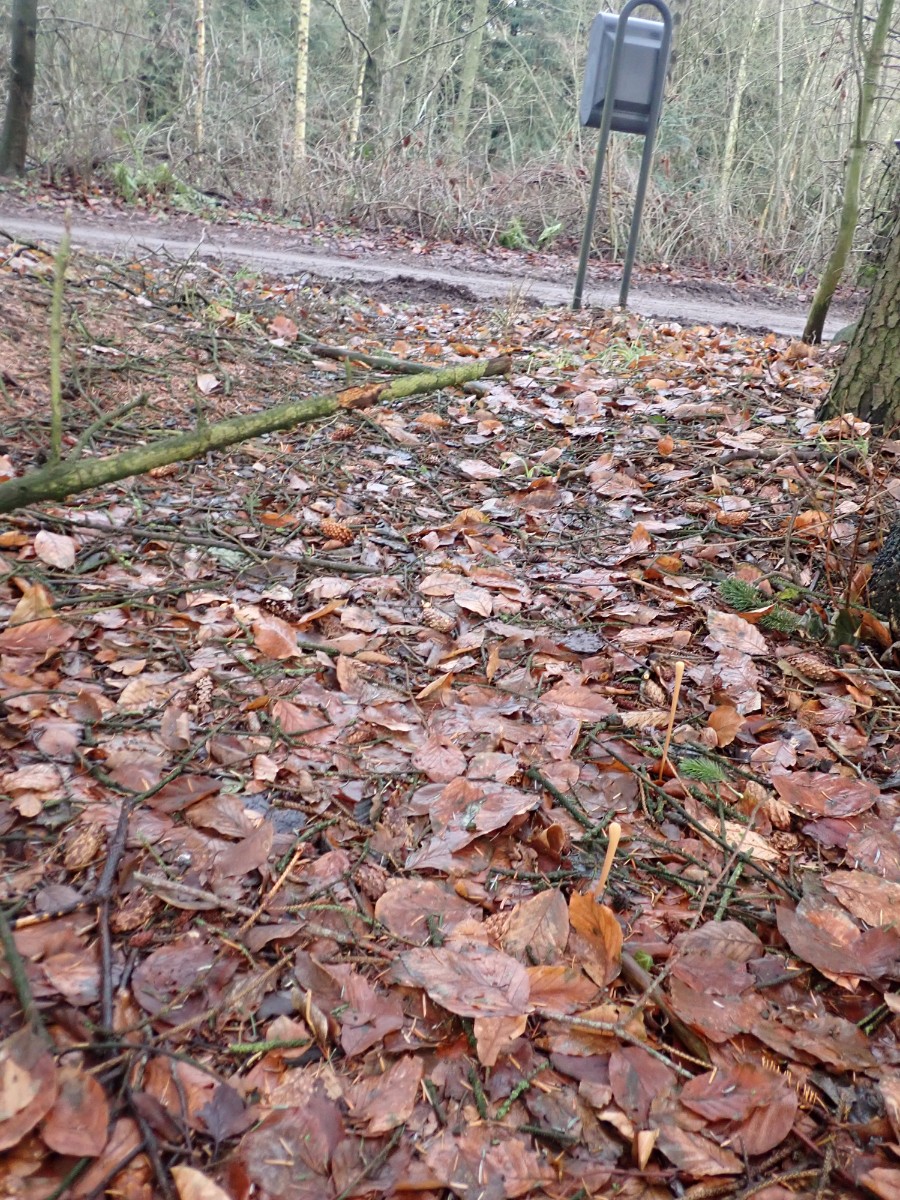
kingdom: Fungi
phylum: Basidiomycota
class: Agaricomycetes
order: Agaricales
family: Typhulaceae
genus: Typhula
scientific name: Typhula fistulosa
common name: pibet rørkølle
